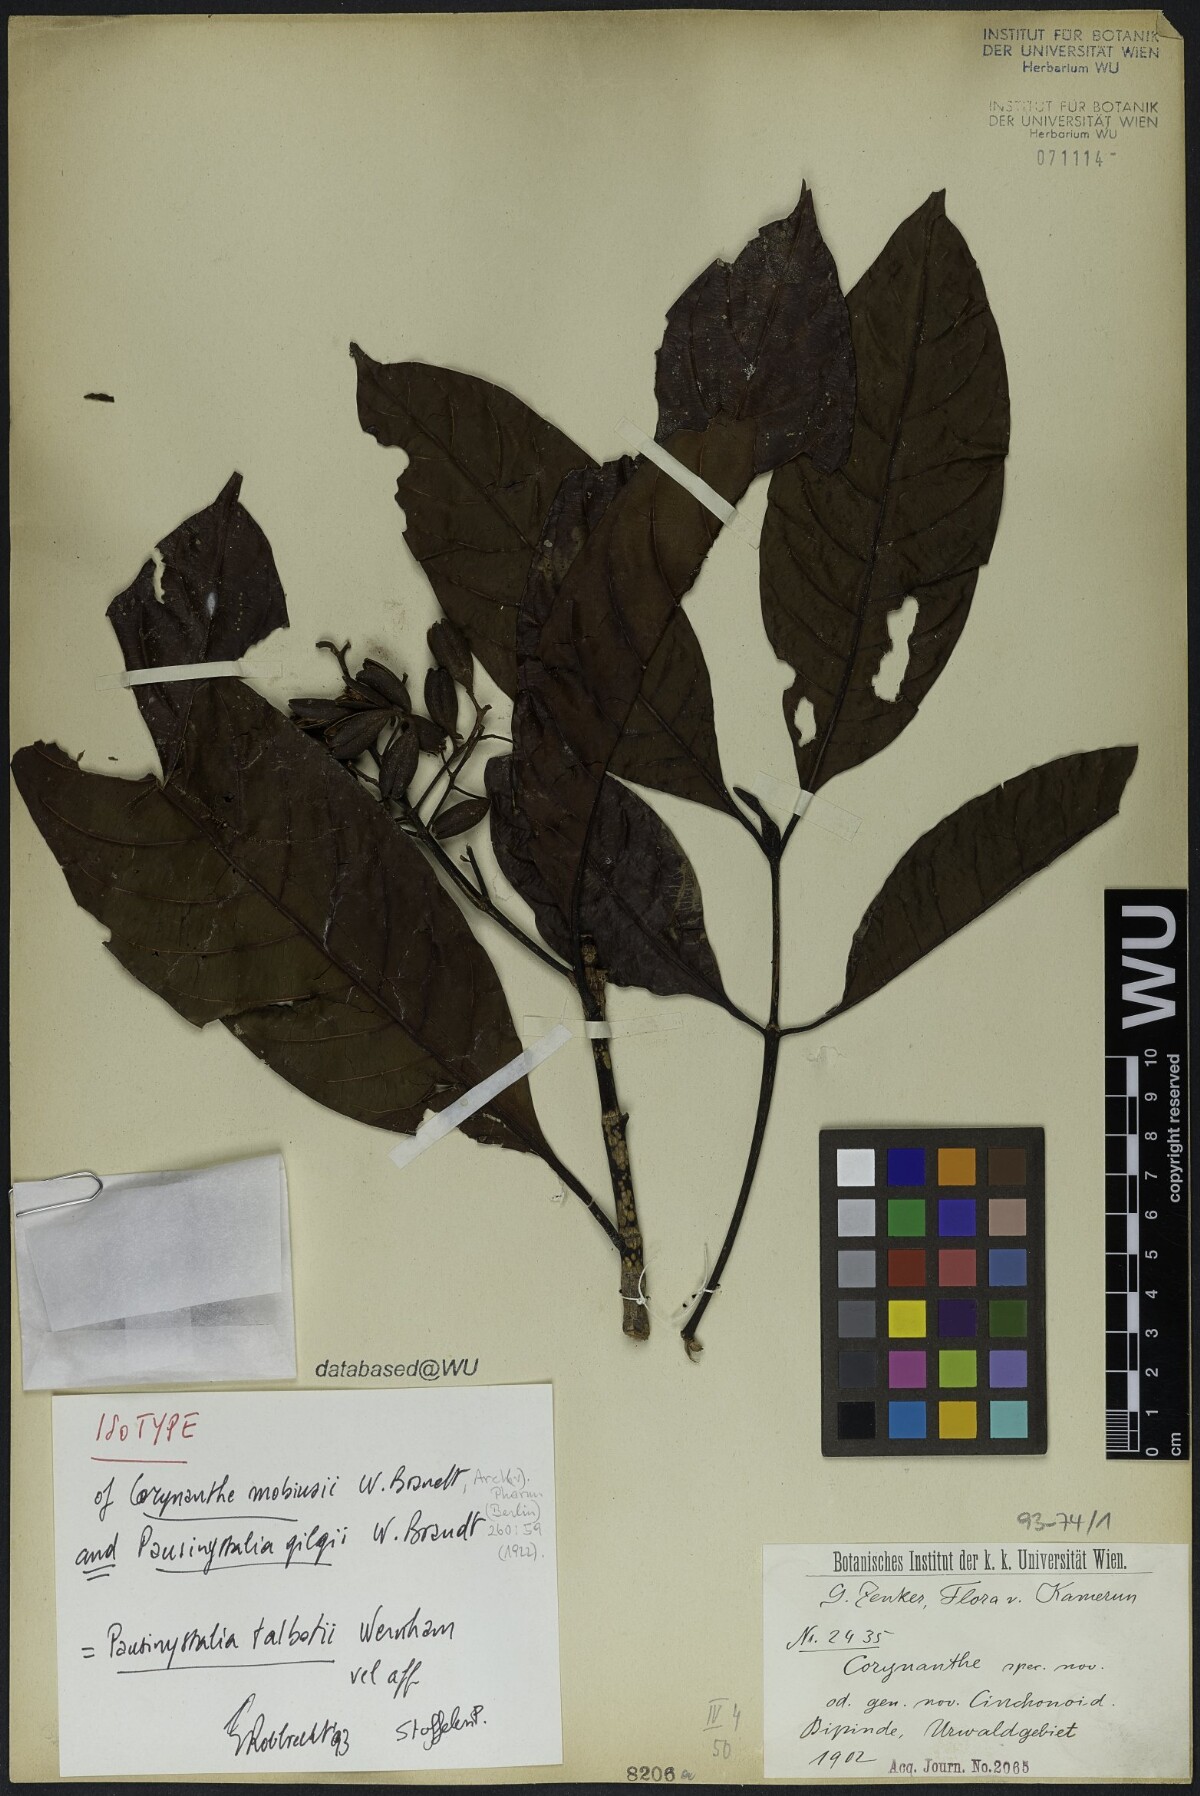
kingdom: Plantae
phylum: Tracheophyta
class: Magnoliopsida
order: Gentianales
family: Rubiaceae
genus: Corynanthe
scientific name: Corynanthe
